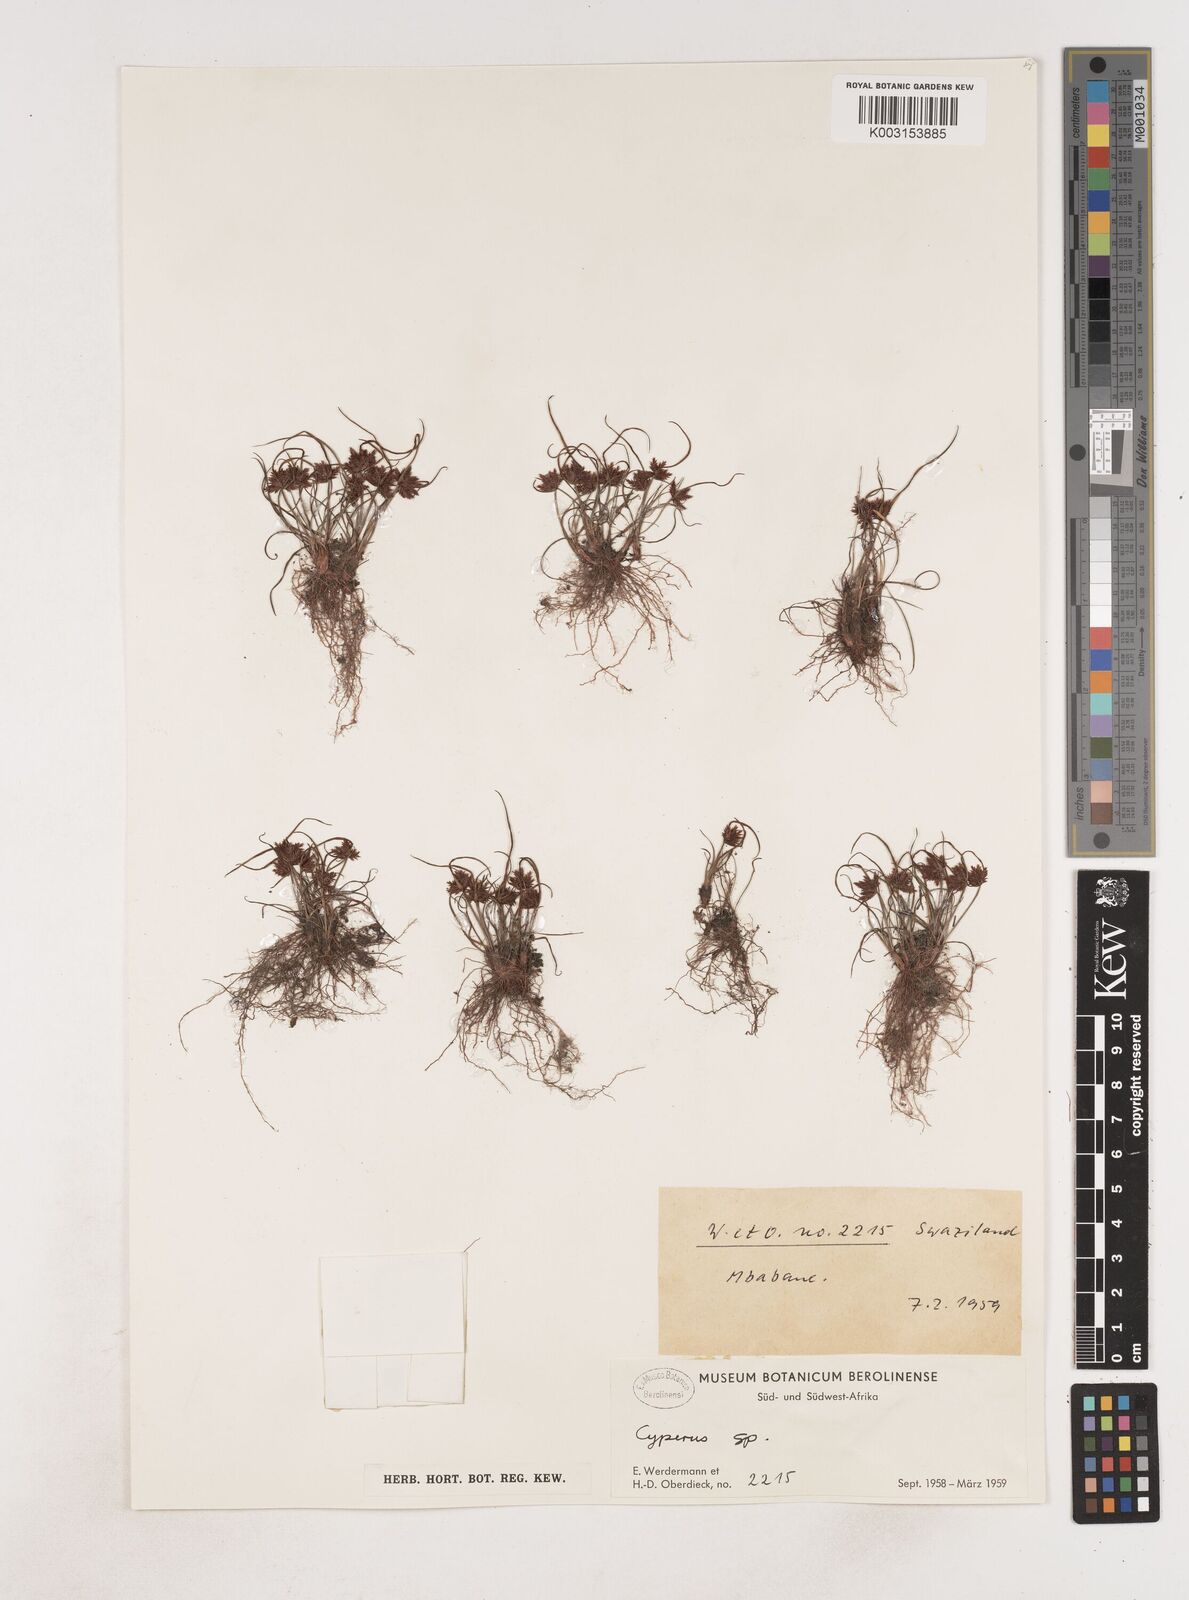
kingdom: Plantae
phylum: Tracheophyta
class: Liliopsida
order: Poales
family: Cyperaceae
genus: Cyperus
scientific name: Cyperus
